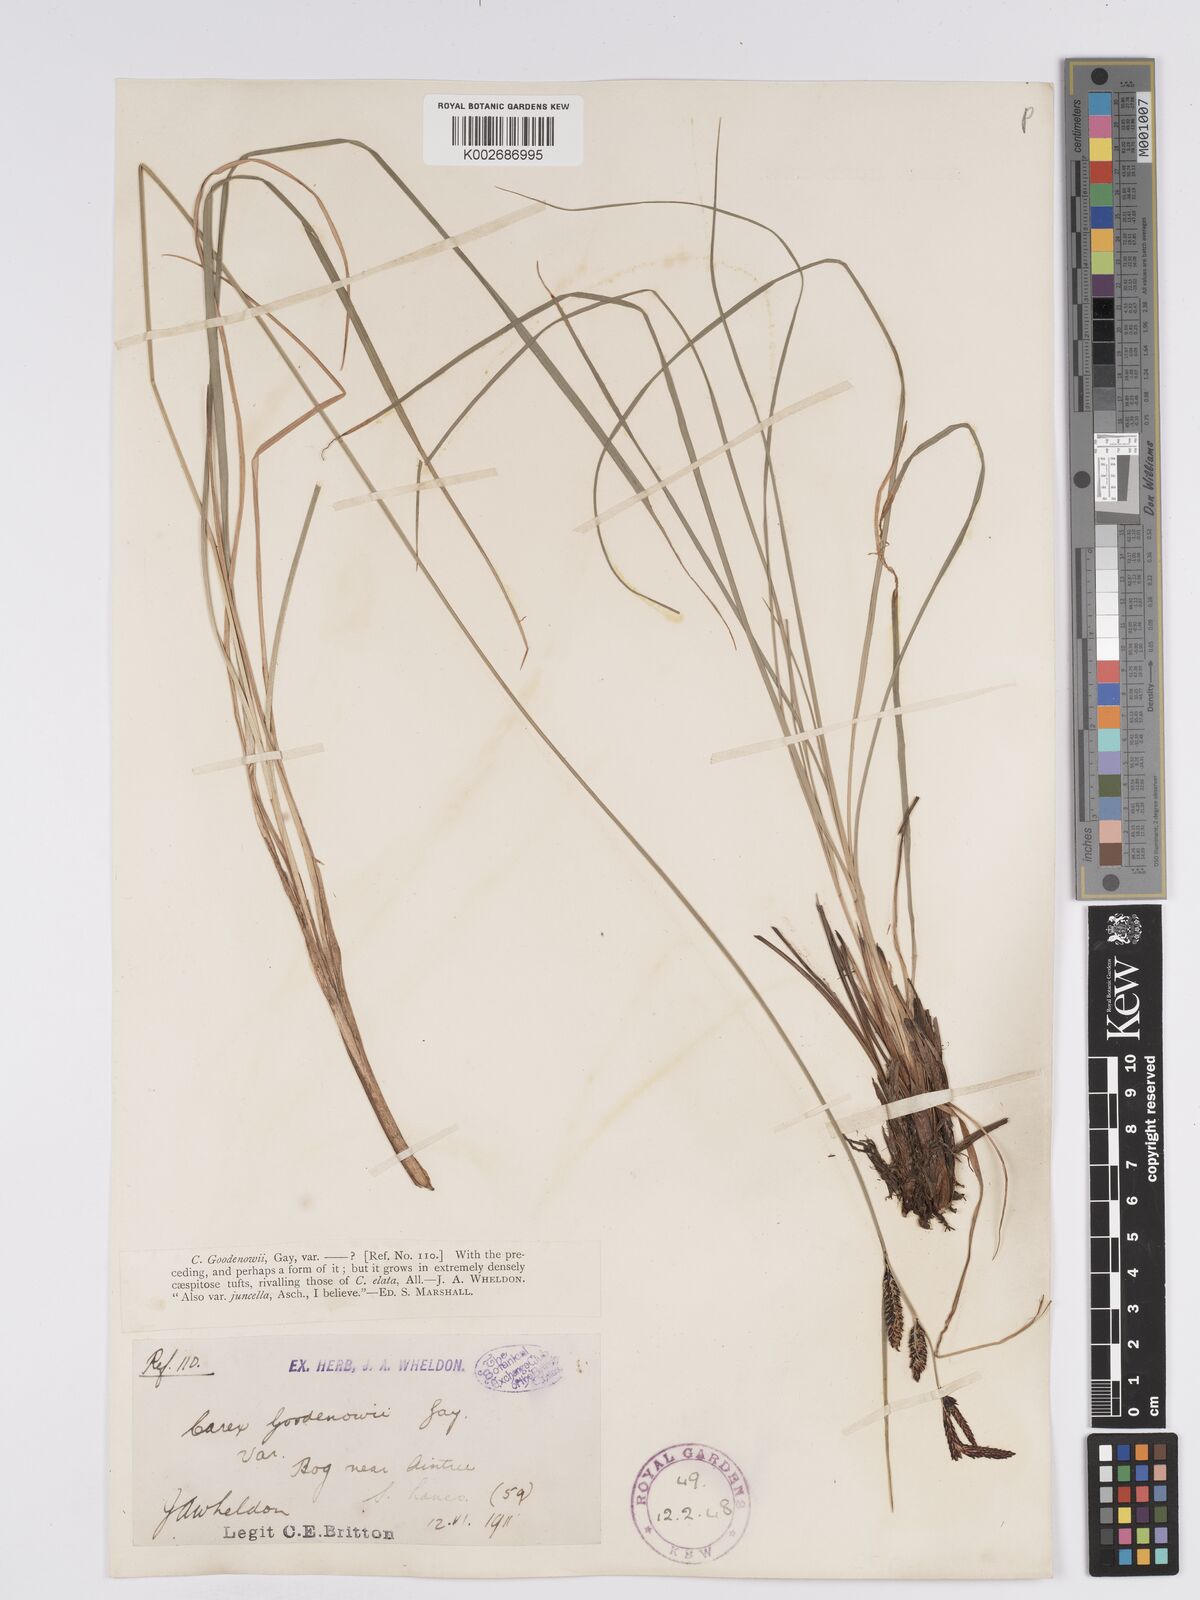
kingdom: Plantae
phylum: Tracheophyta
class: Liliopsida
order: Poales
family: Cyperaceae
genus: Carex
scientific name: Carex nigra
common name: Common sedge
